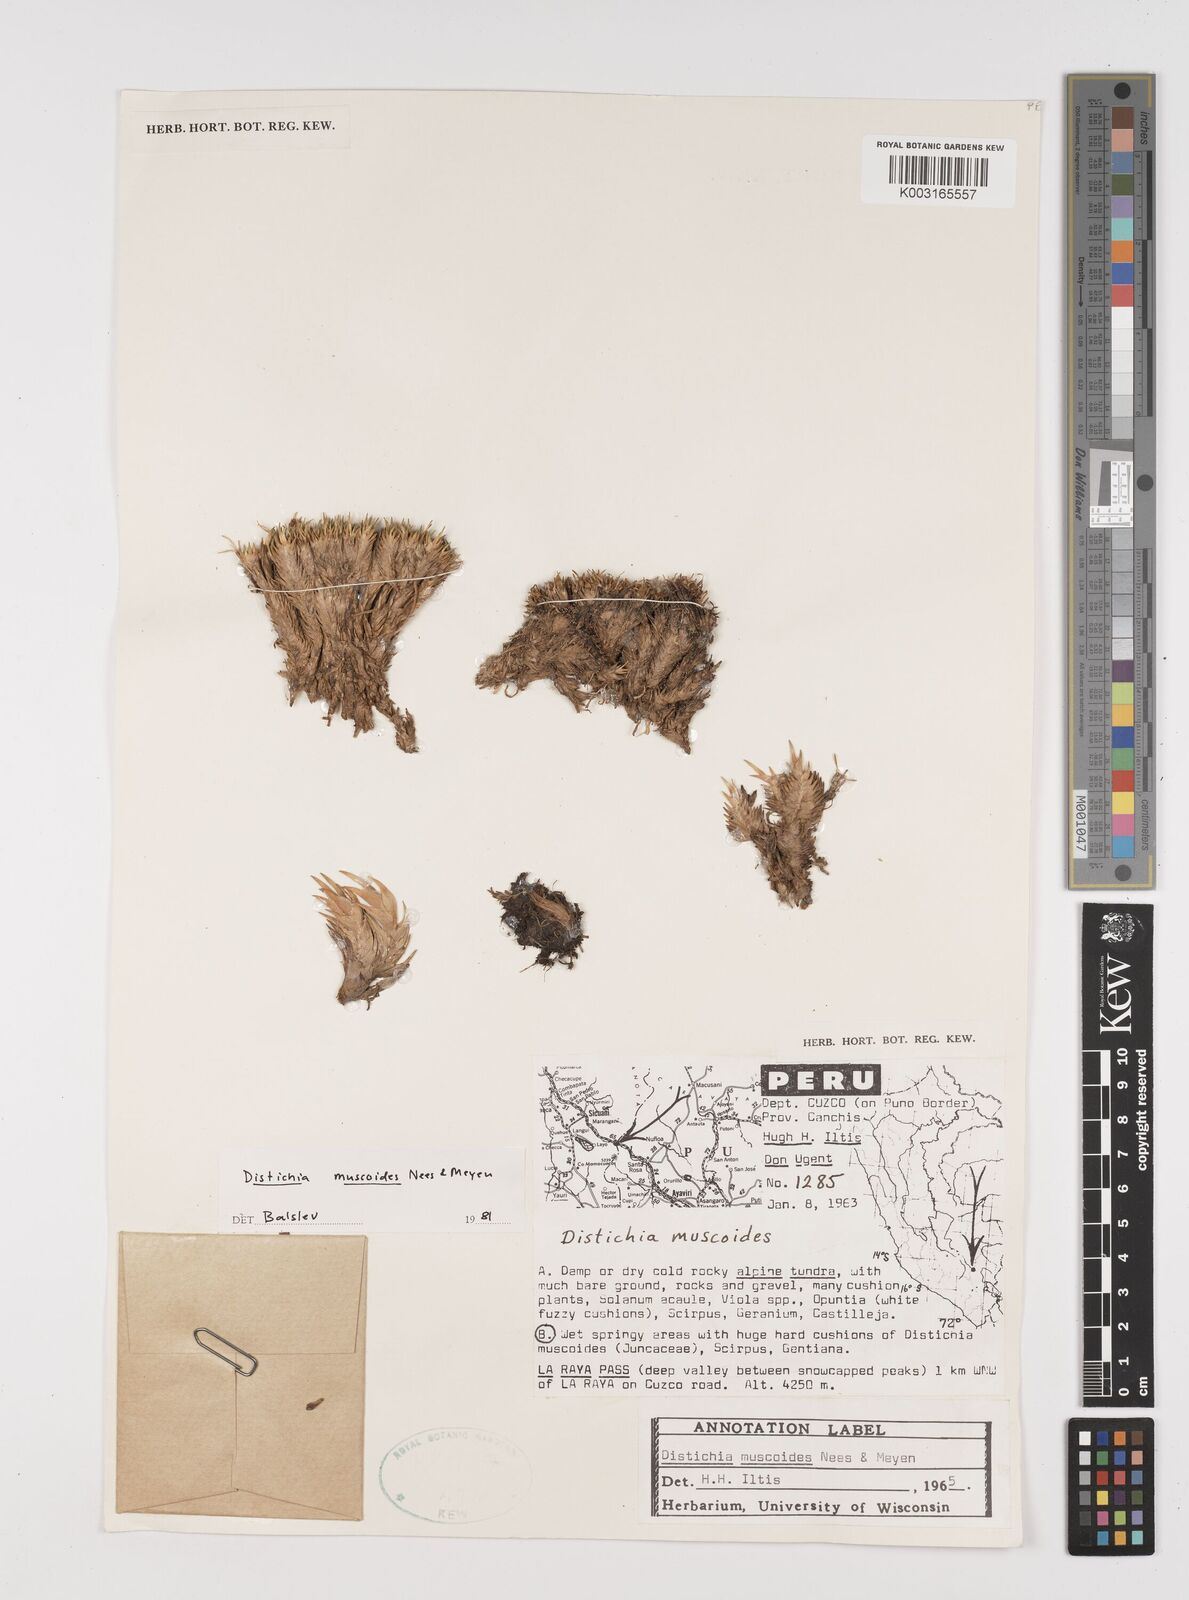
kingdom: Plantae
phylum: Tracheophyta
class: Liliopsida
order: Poales
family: Juncaceae
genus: Distichia
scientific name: Distichia muscoides
